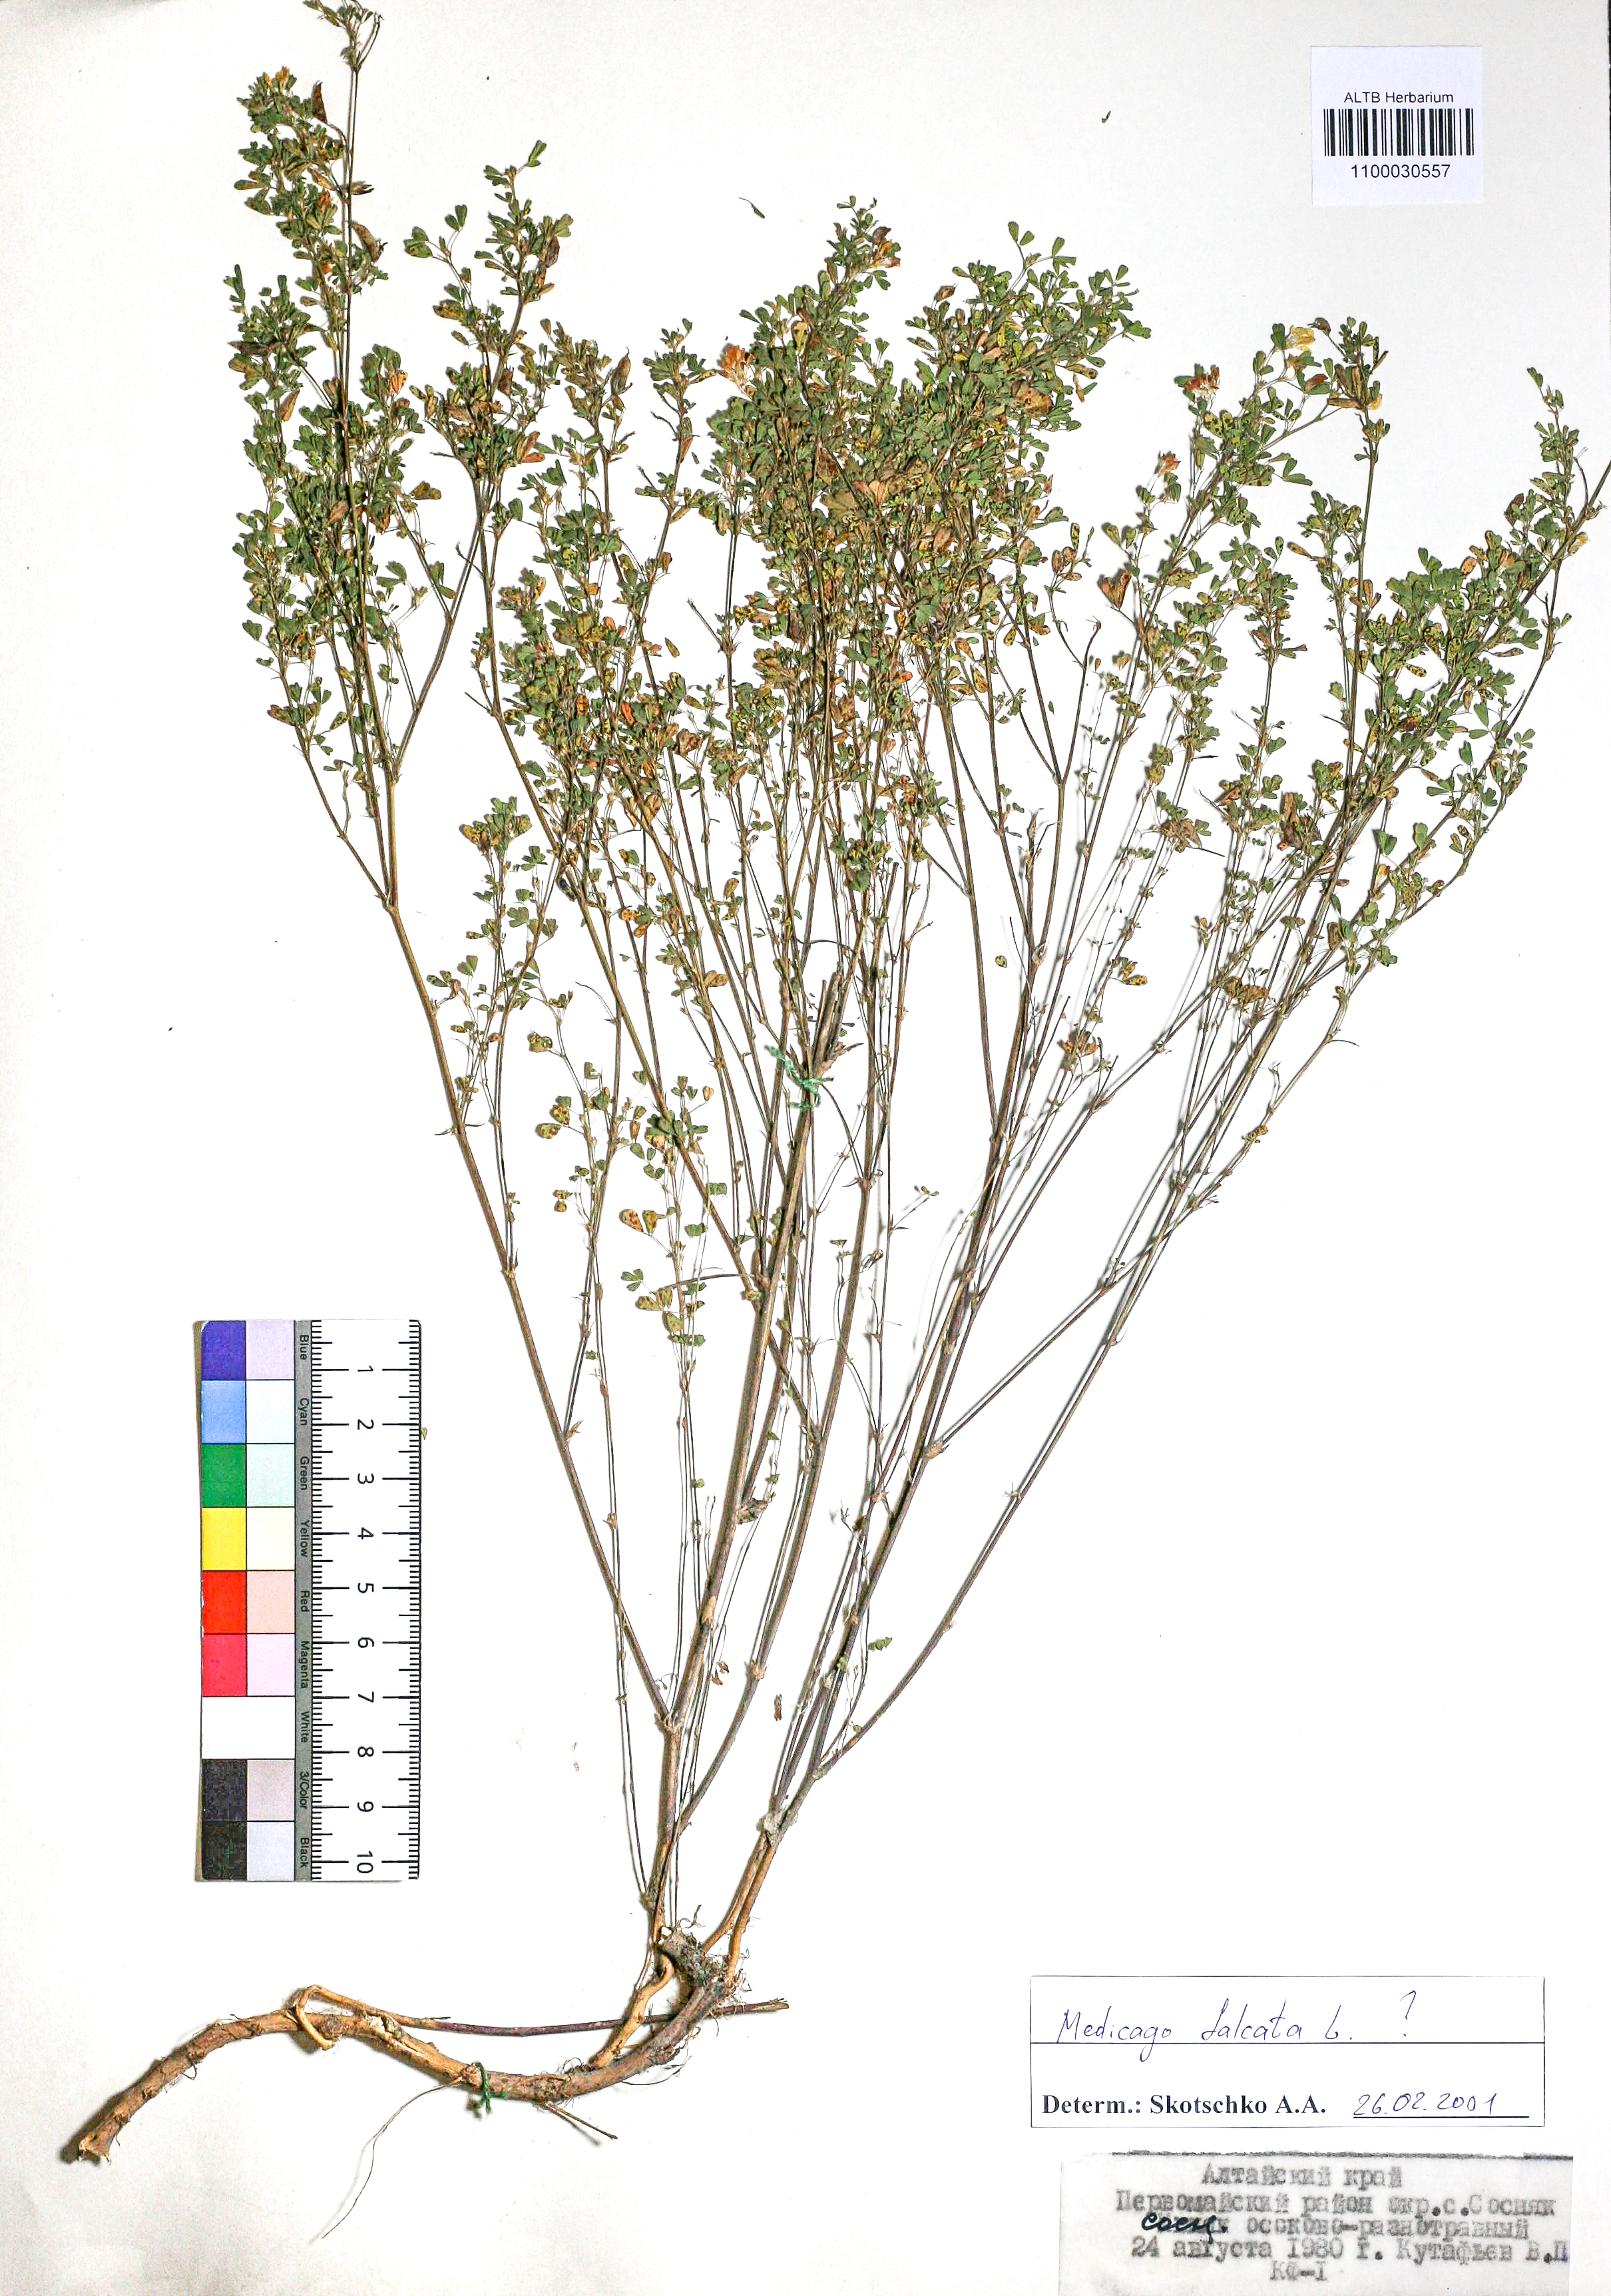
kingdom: Plantae
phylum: Tracheophyta
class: Magnoliopsida
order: Fabales
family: Fabaceae
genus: Medicago
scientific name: Medicago falcata
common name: Sickle medick
